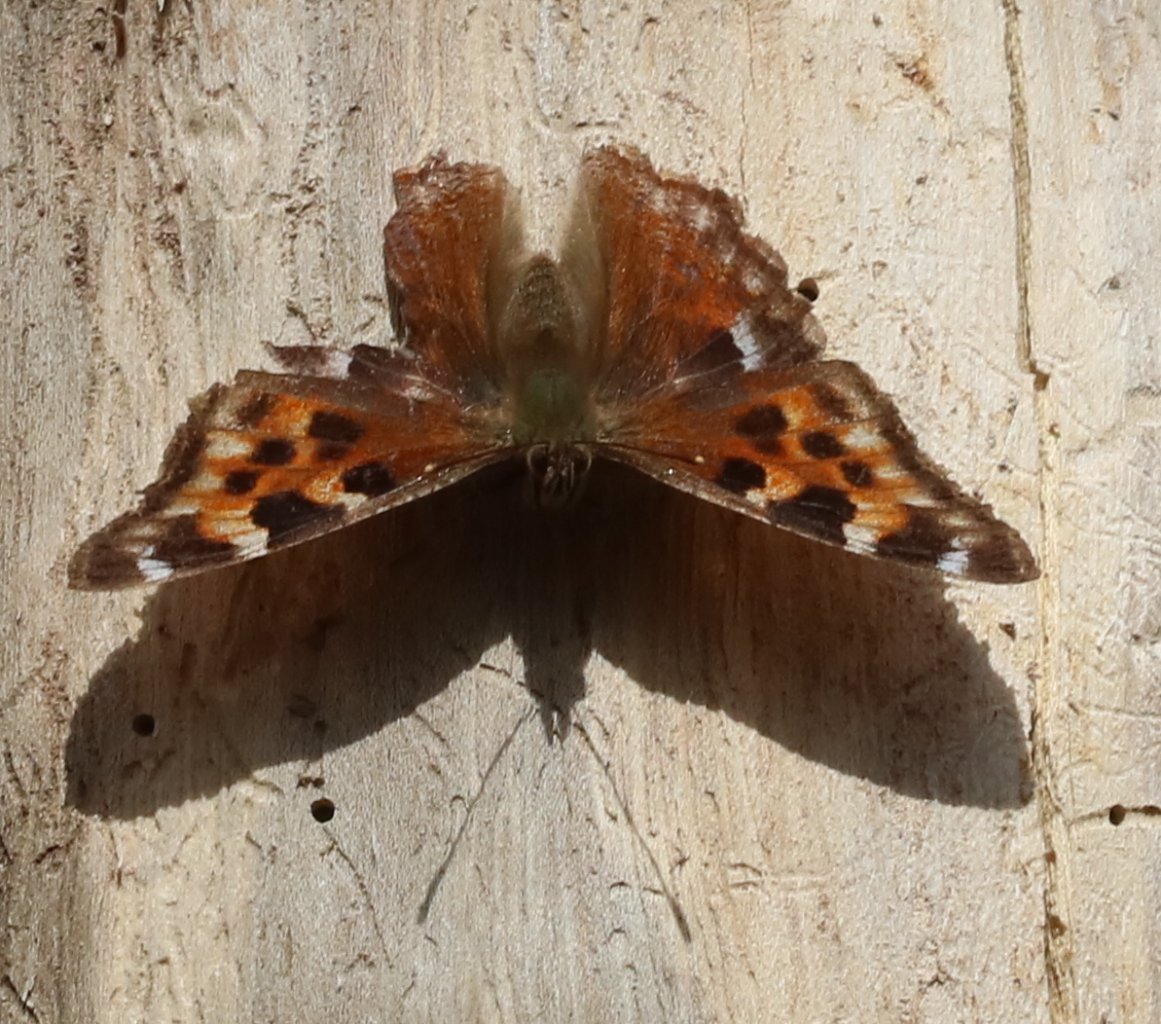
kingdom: Animalia
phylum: Arthropoda
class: Insecta
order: Lepidoptera
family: Nymphalidae
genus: Polygonia
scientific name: Polygonia vaualbum
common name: Compton Tortoiseshell
